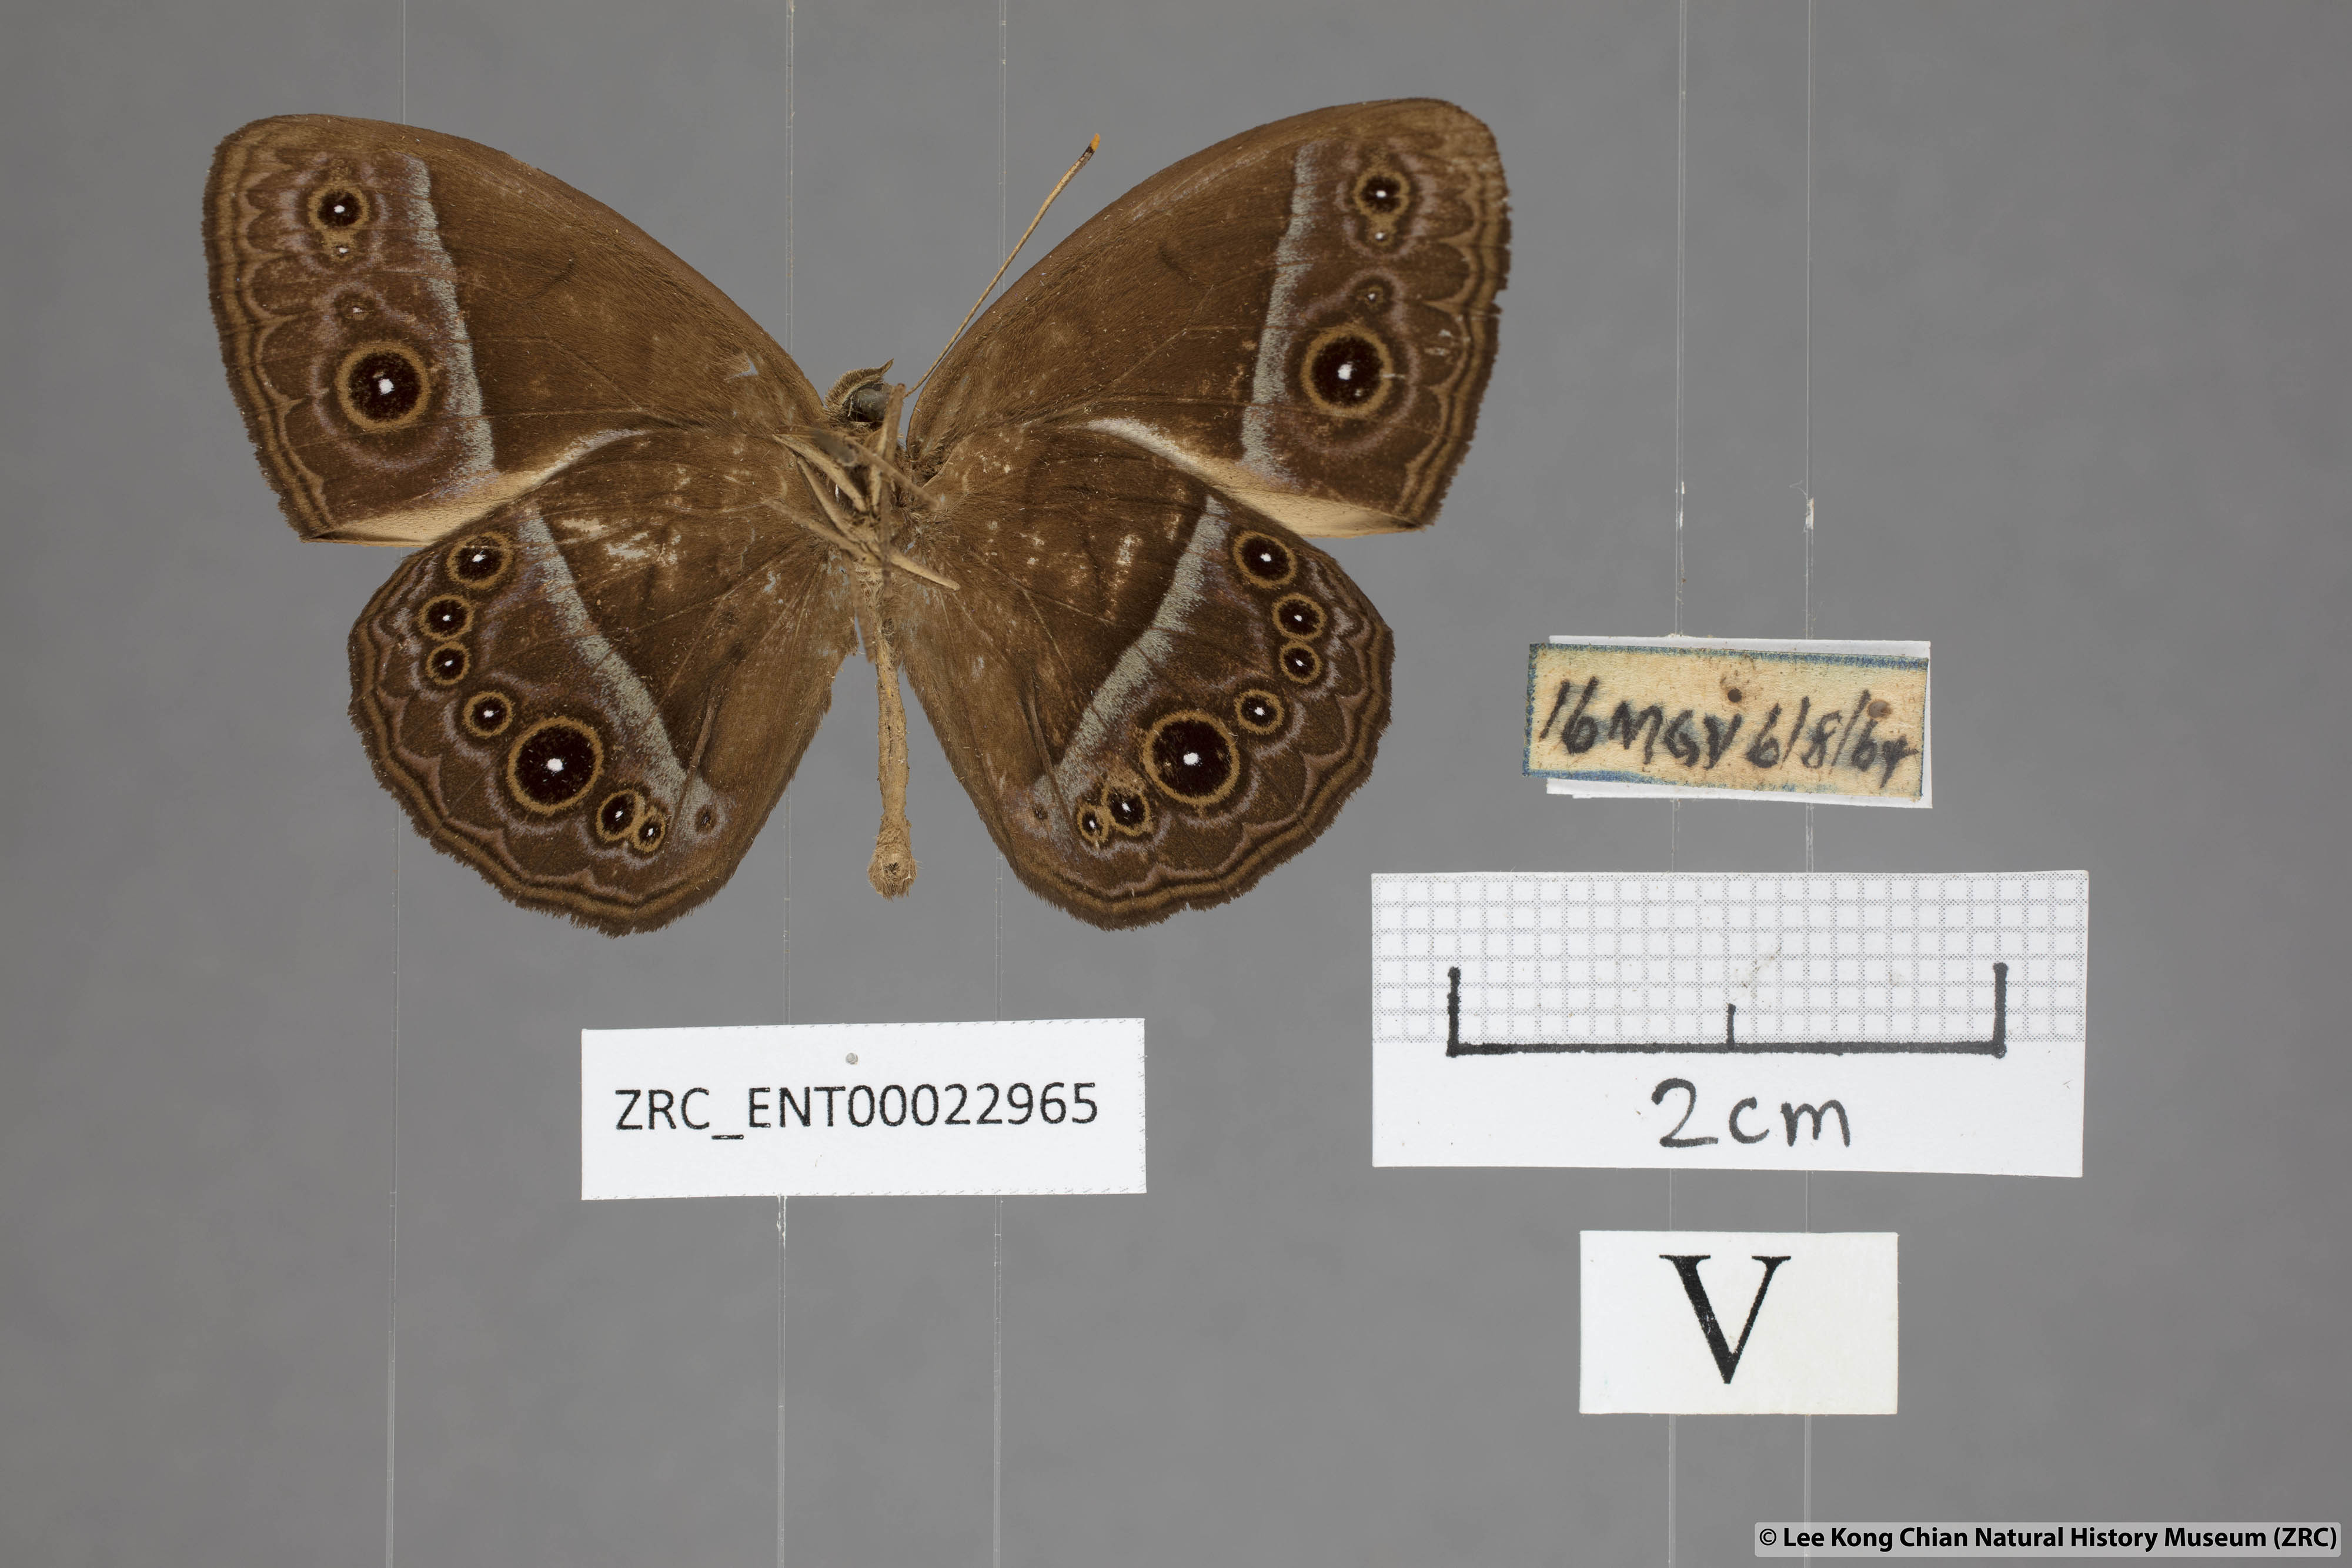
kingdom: Animalia
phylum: Arthropoda
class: Insecta
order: Lepidoptera
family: Nymphalidae
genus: Mycalesis
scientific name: Mycalesis oroatis
